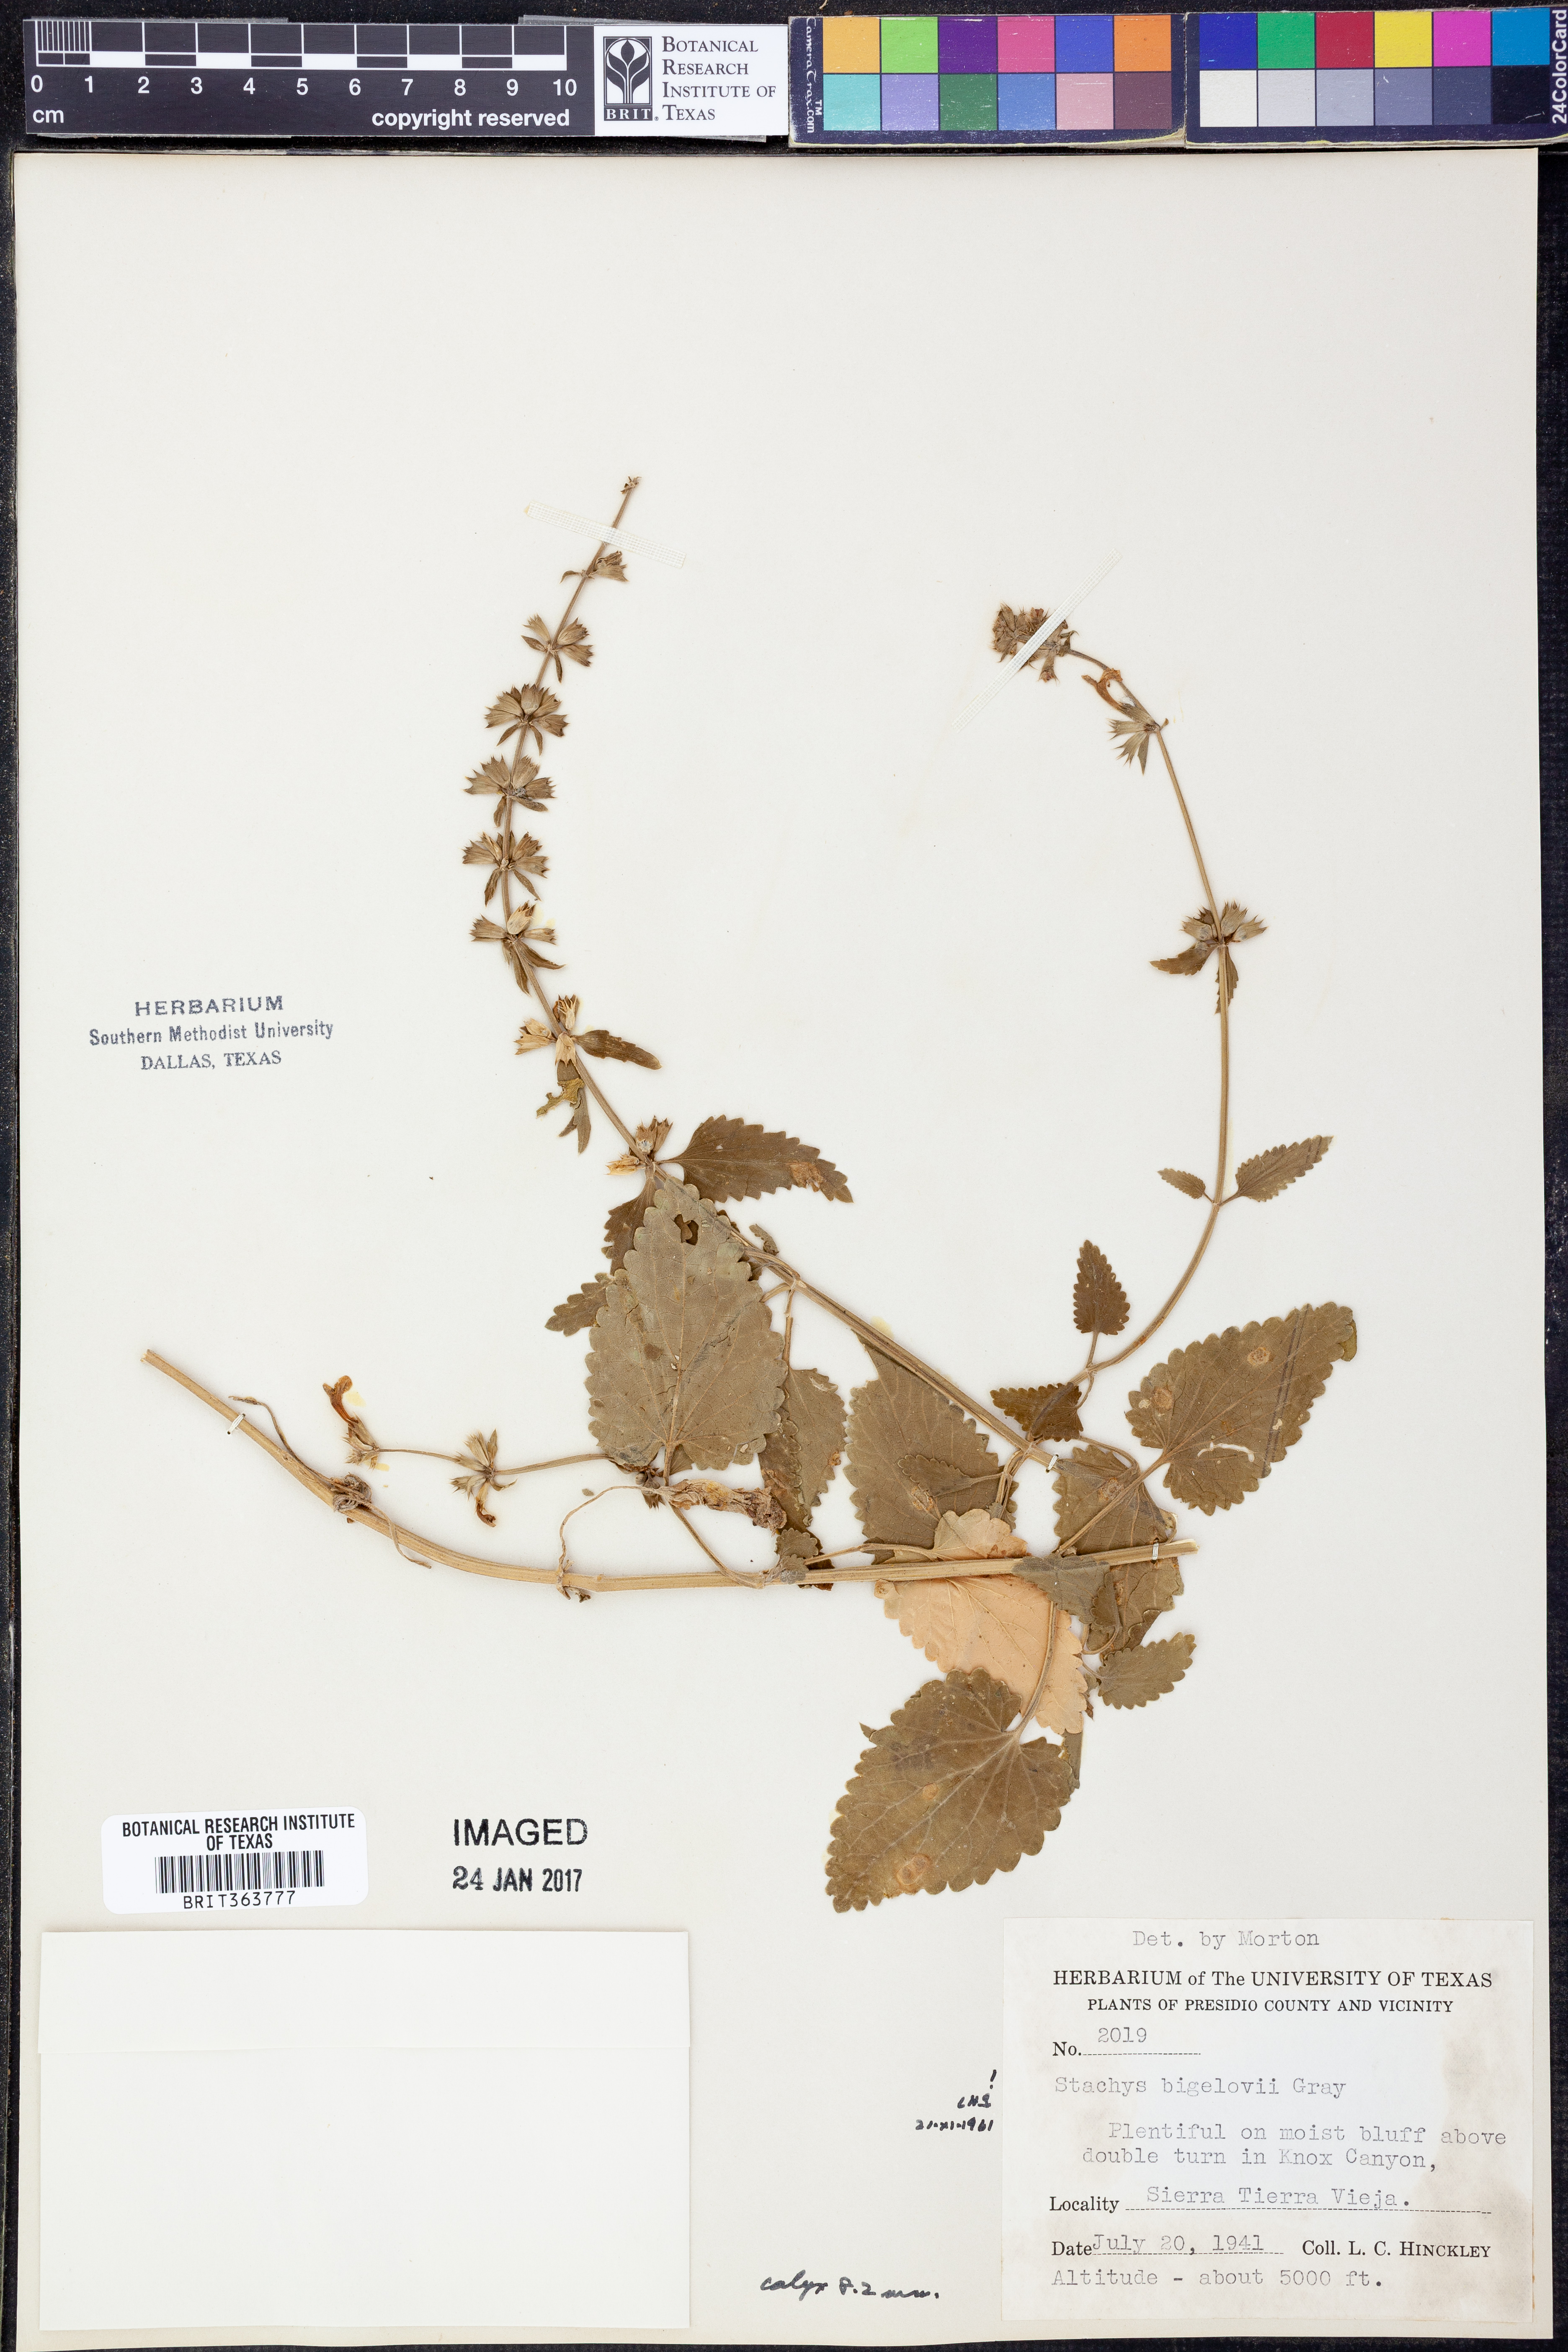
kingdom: Plantae
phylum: Tracheophyta
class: Magnoliopsida
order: Lamiales
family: Lamiaceae
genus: Stachys
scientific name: Stachys bigelovii
